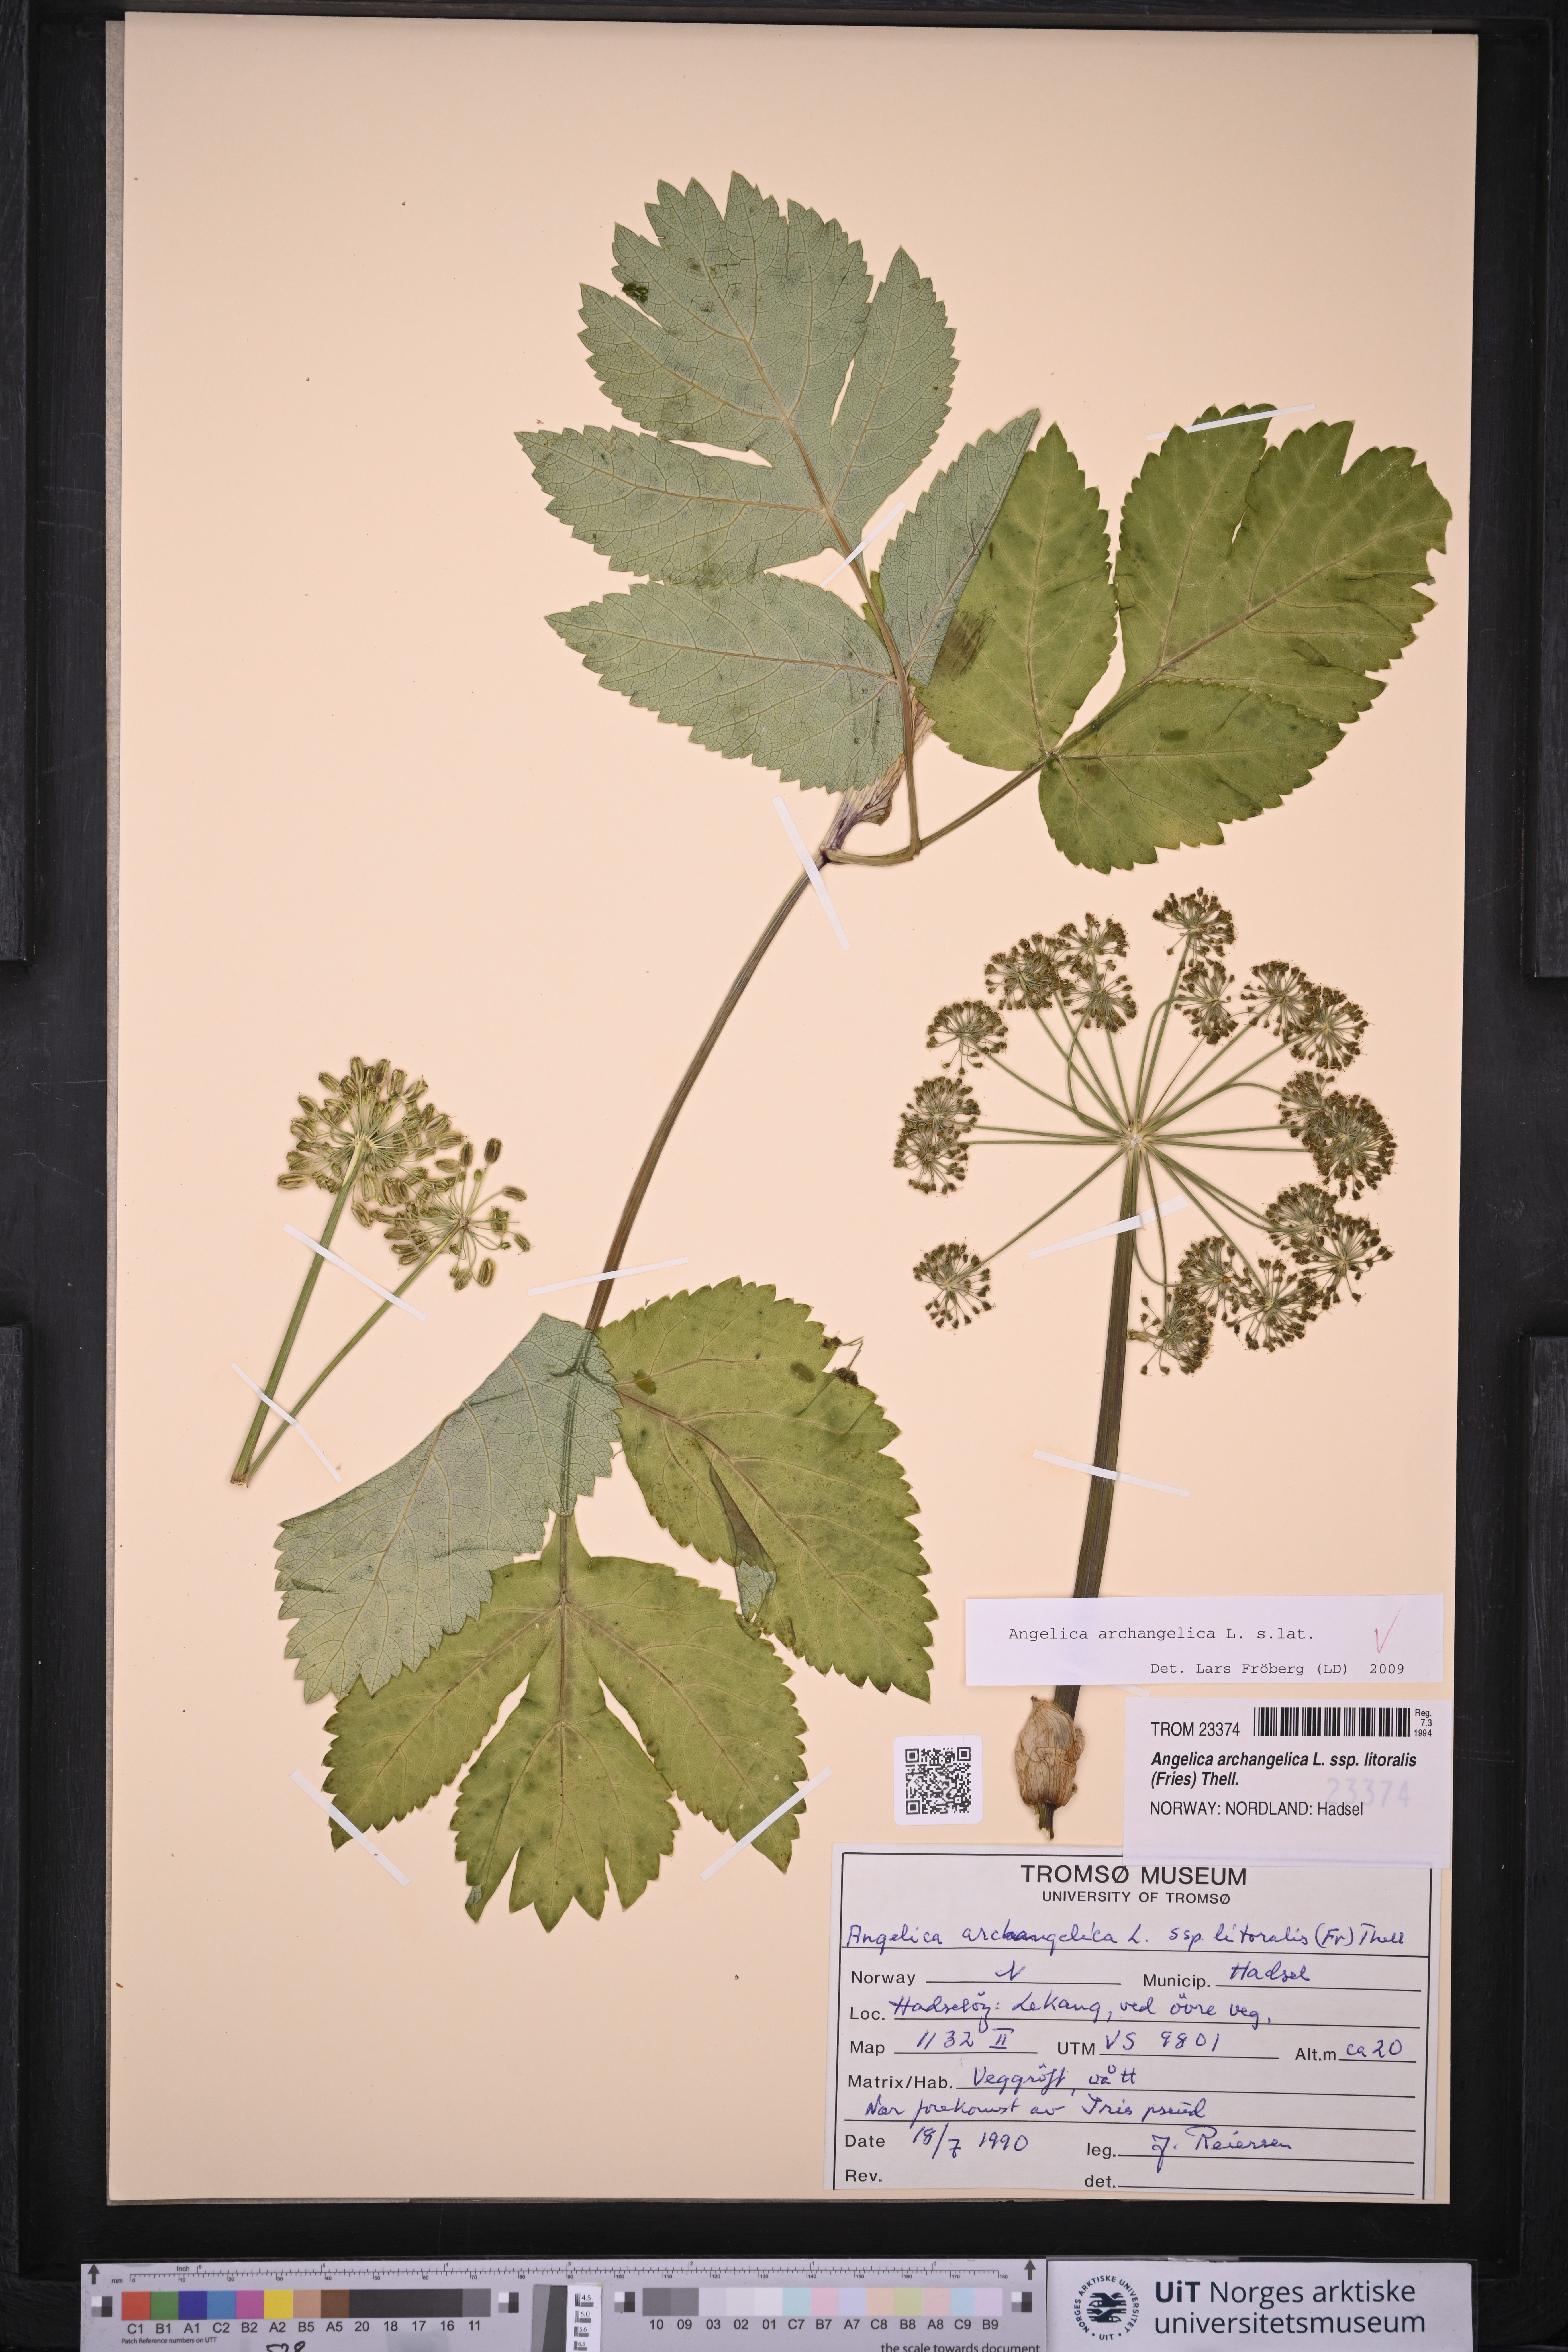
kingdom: Plantae
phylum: Tracheophyta
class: Magnoliopsida
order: Apiales
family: Apiaceae
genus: Angelica
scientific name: Angelica archangelica
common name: Garden angelica
